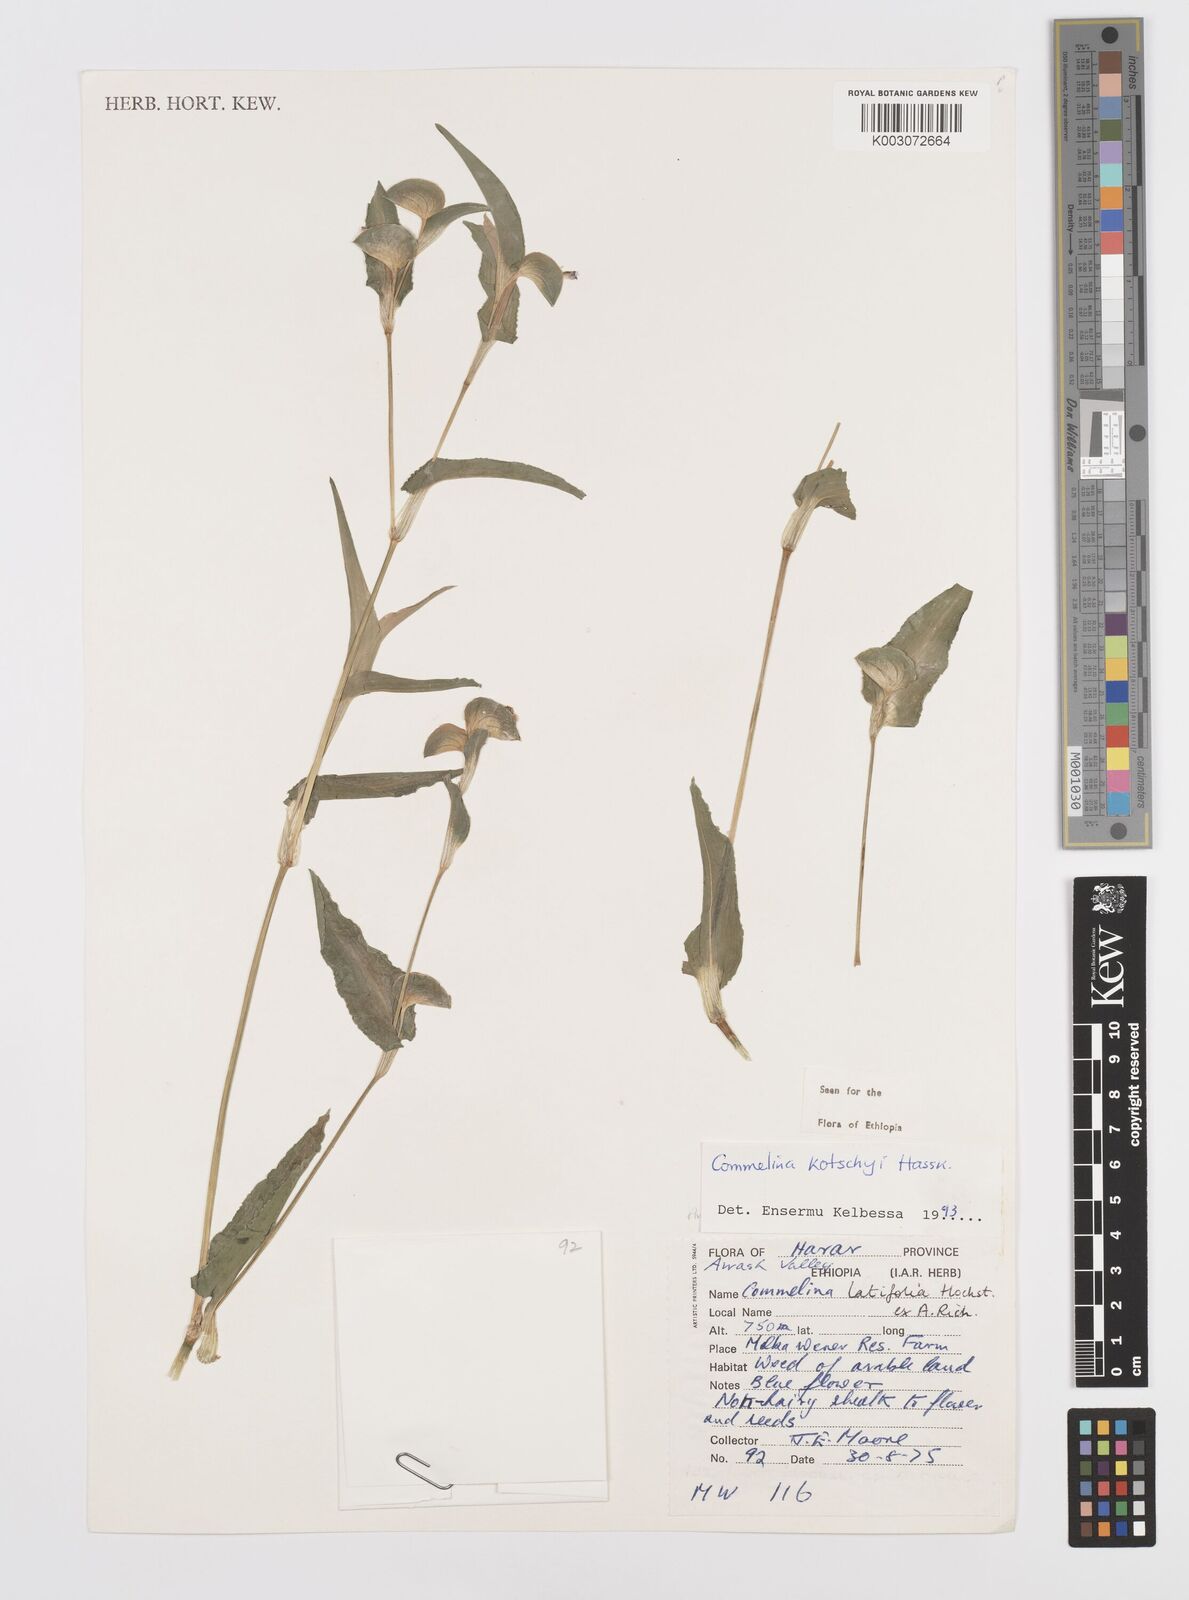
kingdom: Plantae
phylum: Tracheophyta
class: Liliopsida
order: Commelinales
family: Commelinaceae
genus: Commelina
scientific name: Commelina kotschyi
